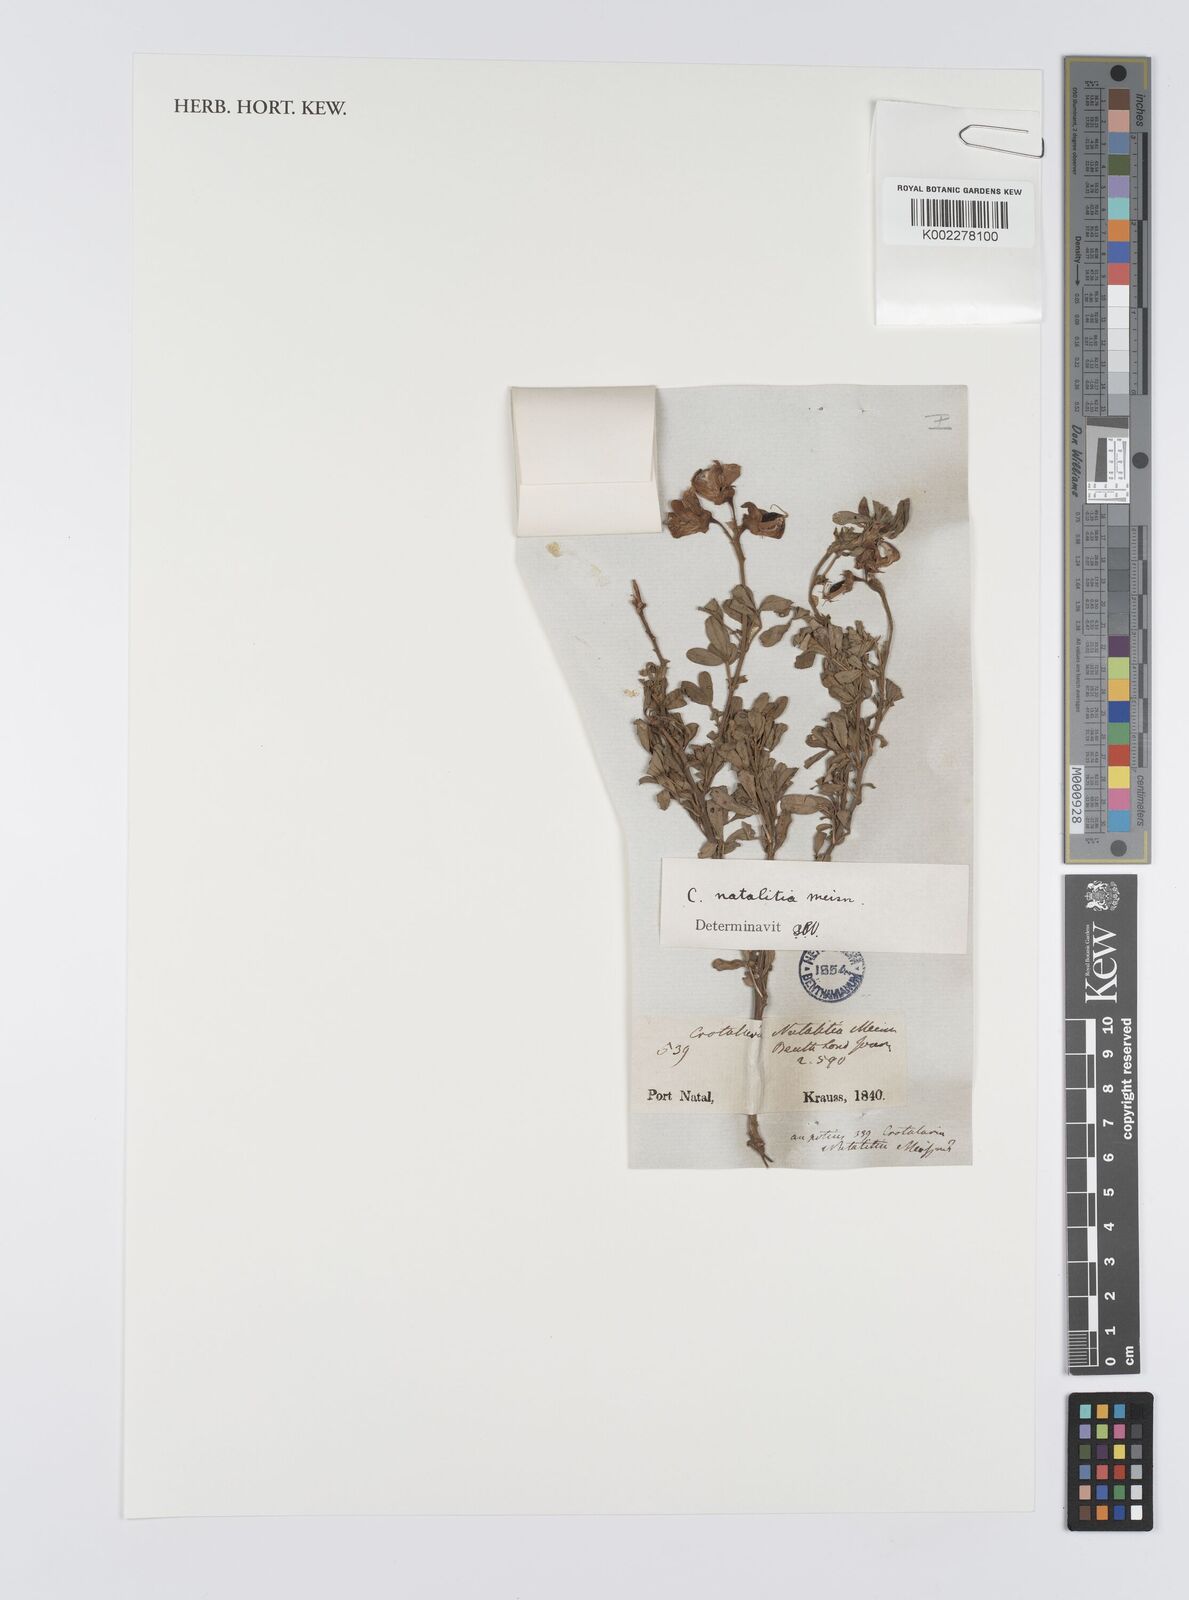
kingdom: Plantae
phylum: Tracheophyta
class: Magnoliopsida
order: Fabales
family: Fabaceae
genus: Crotalaria
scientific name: Crotalaria natalitia
